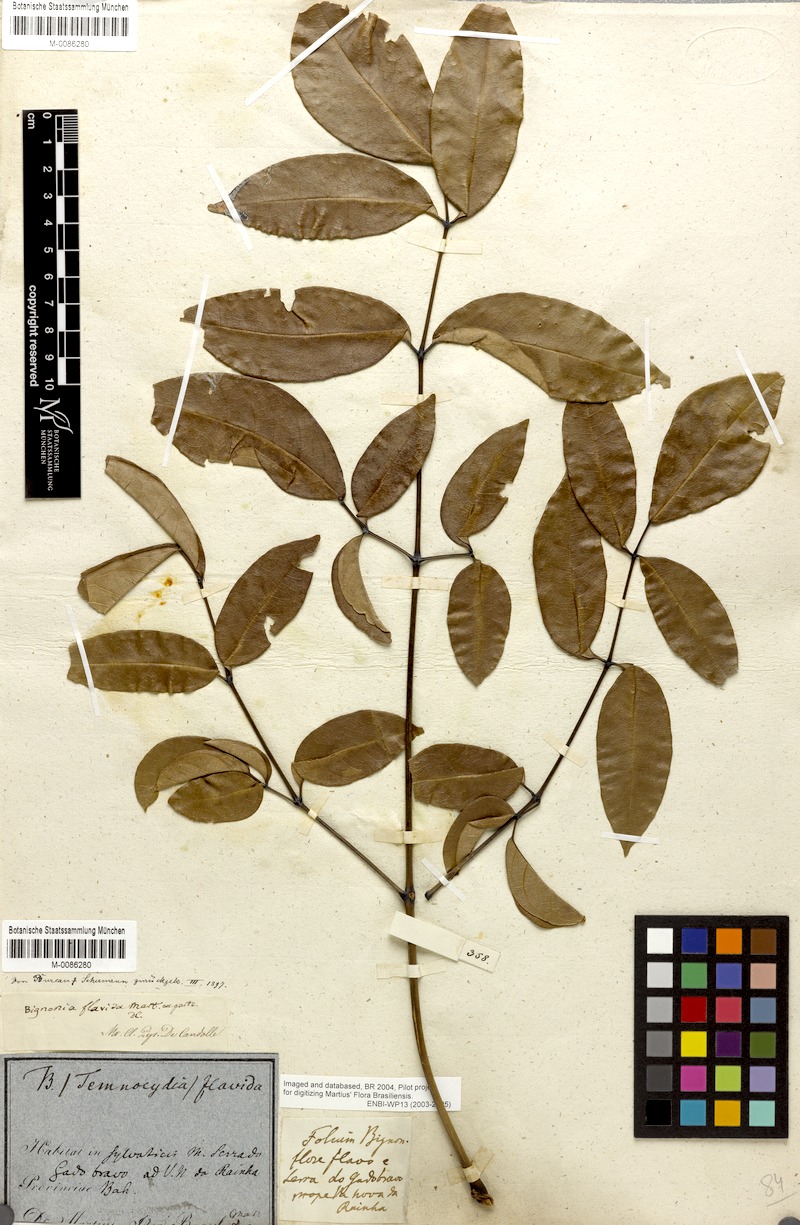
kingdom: Plantae
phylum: Tracheophyta
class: Magnoliopsida
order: Lamiales
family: Bignoniaceae
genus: Adenocalymma
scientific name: Adenocalymma neoflavidum
